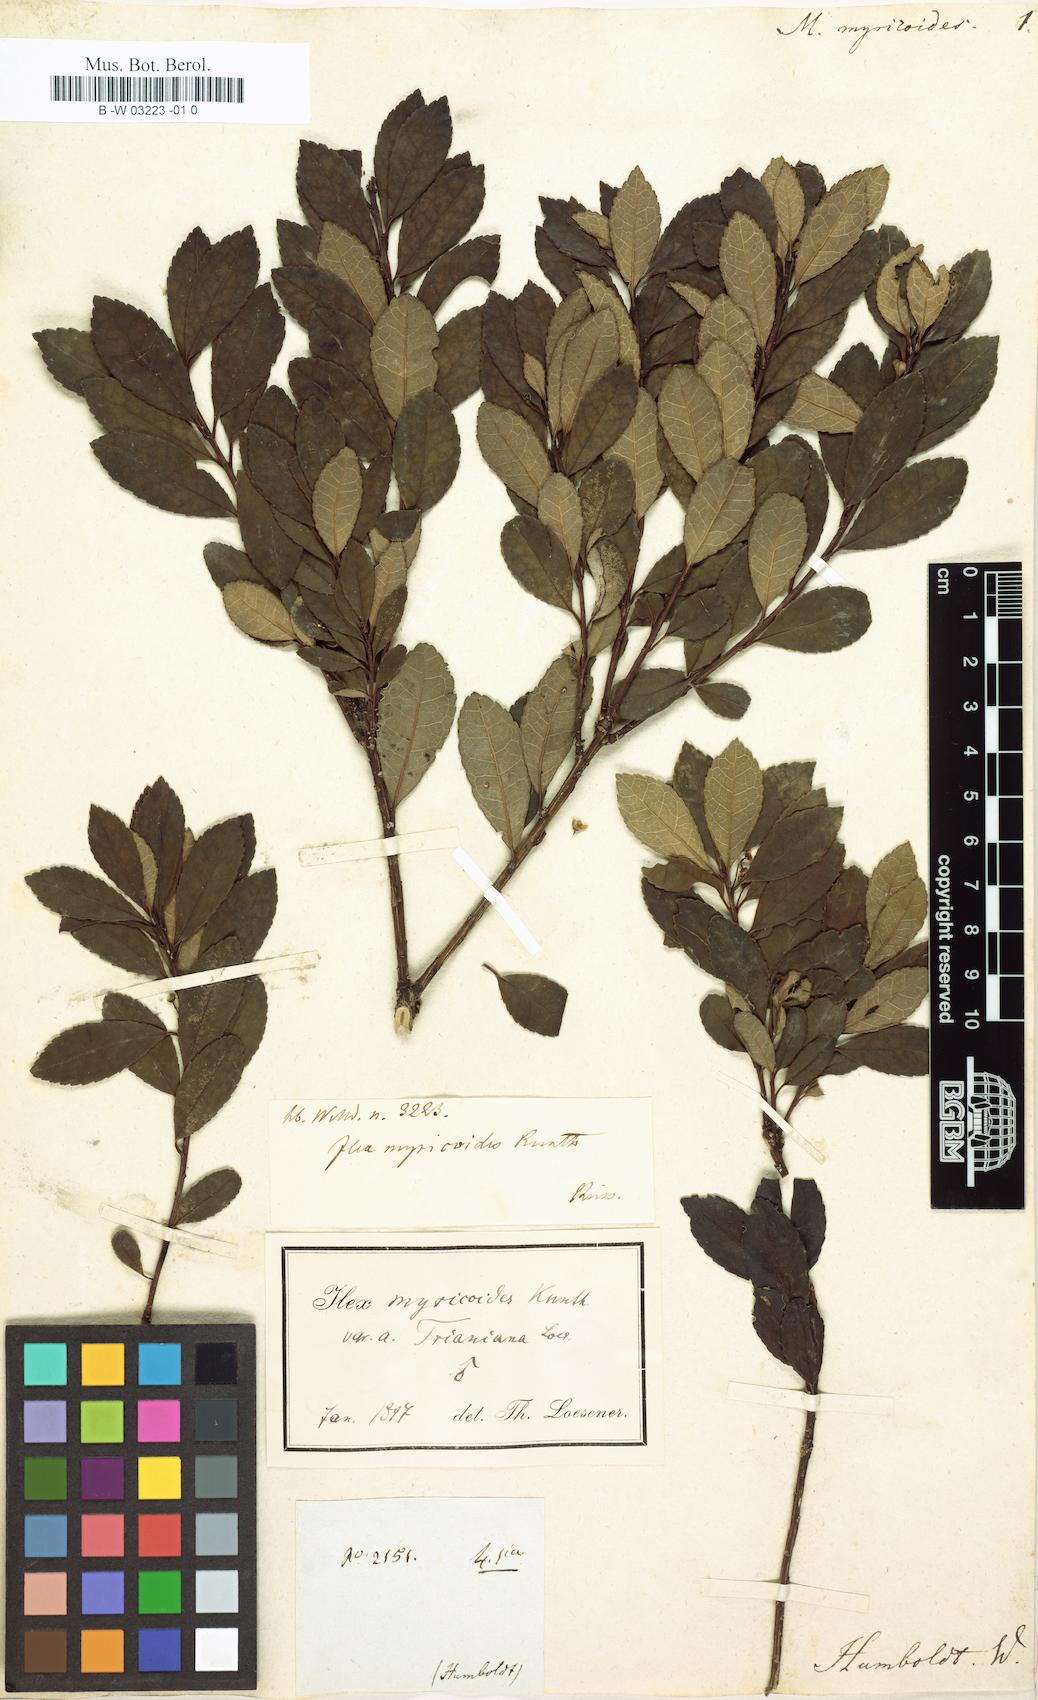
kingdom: Plantae
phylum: Tracheophyta
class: Magnoliopsida
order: Aquifoliales
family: Aquifoliaceae
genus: Ilex
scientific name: Ilex myricoides
